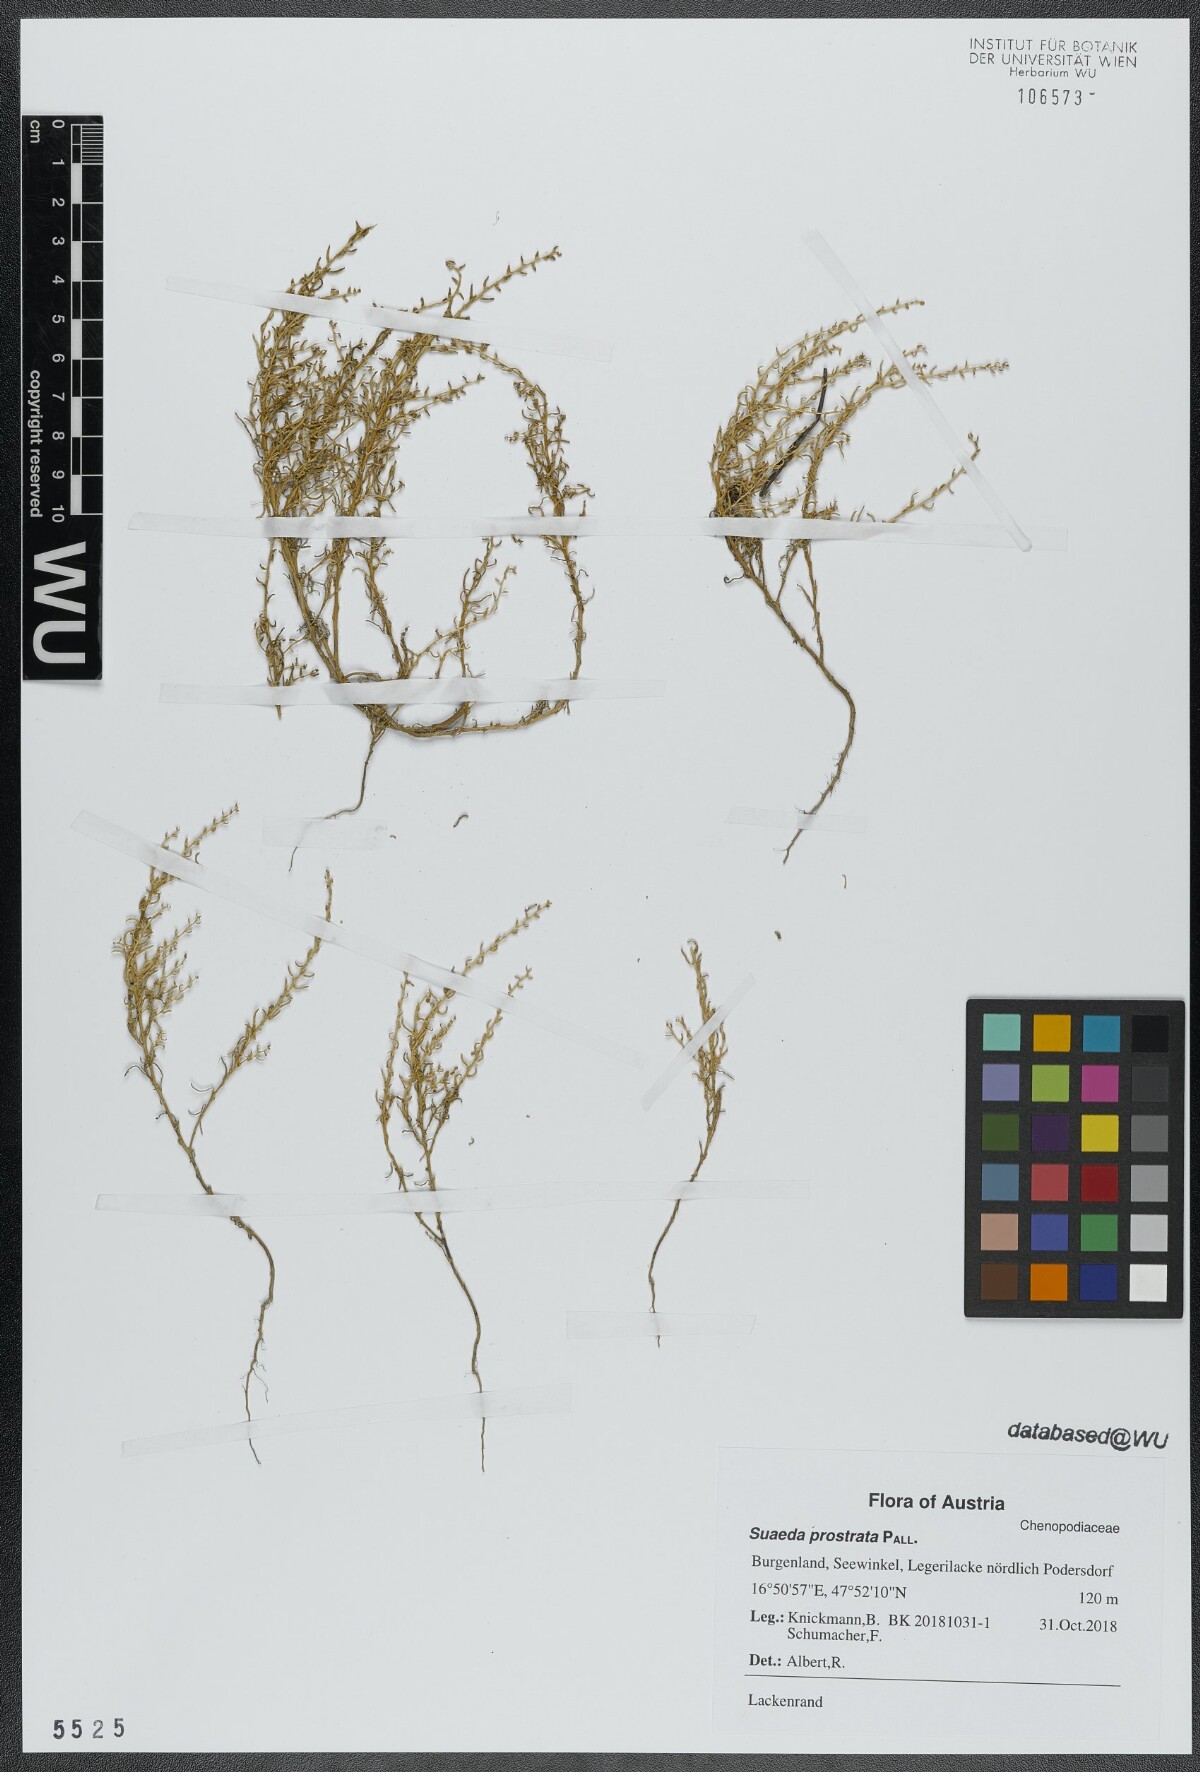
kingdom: Plantae
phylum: Tracheophyta
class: Magnoliopsida
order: Caryophyllales
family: Amaranthaceae
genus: Suaeda
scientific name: Suaeda prostrata
